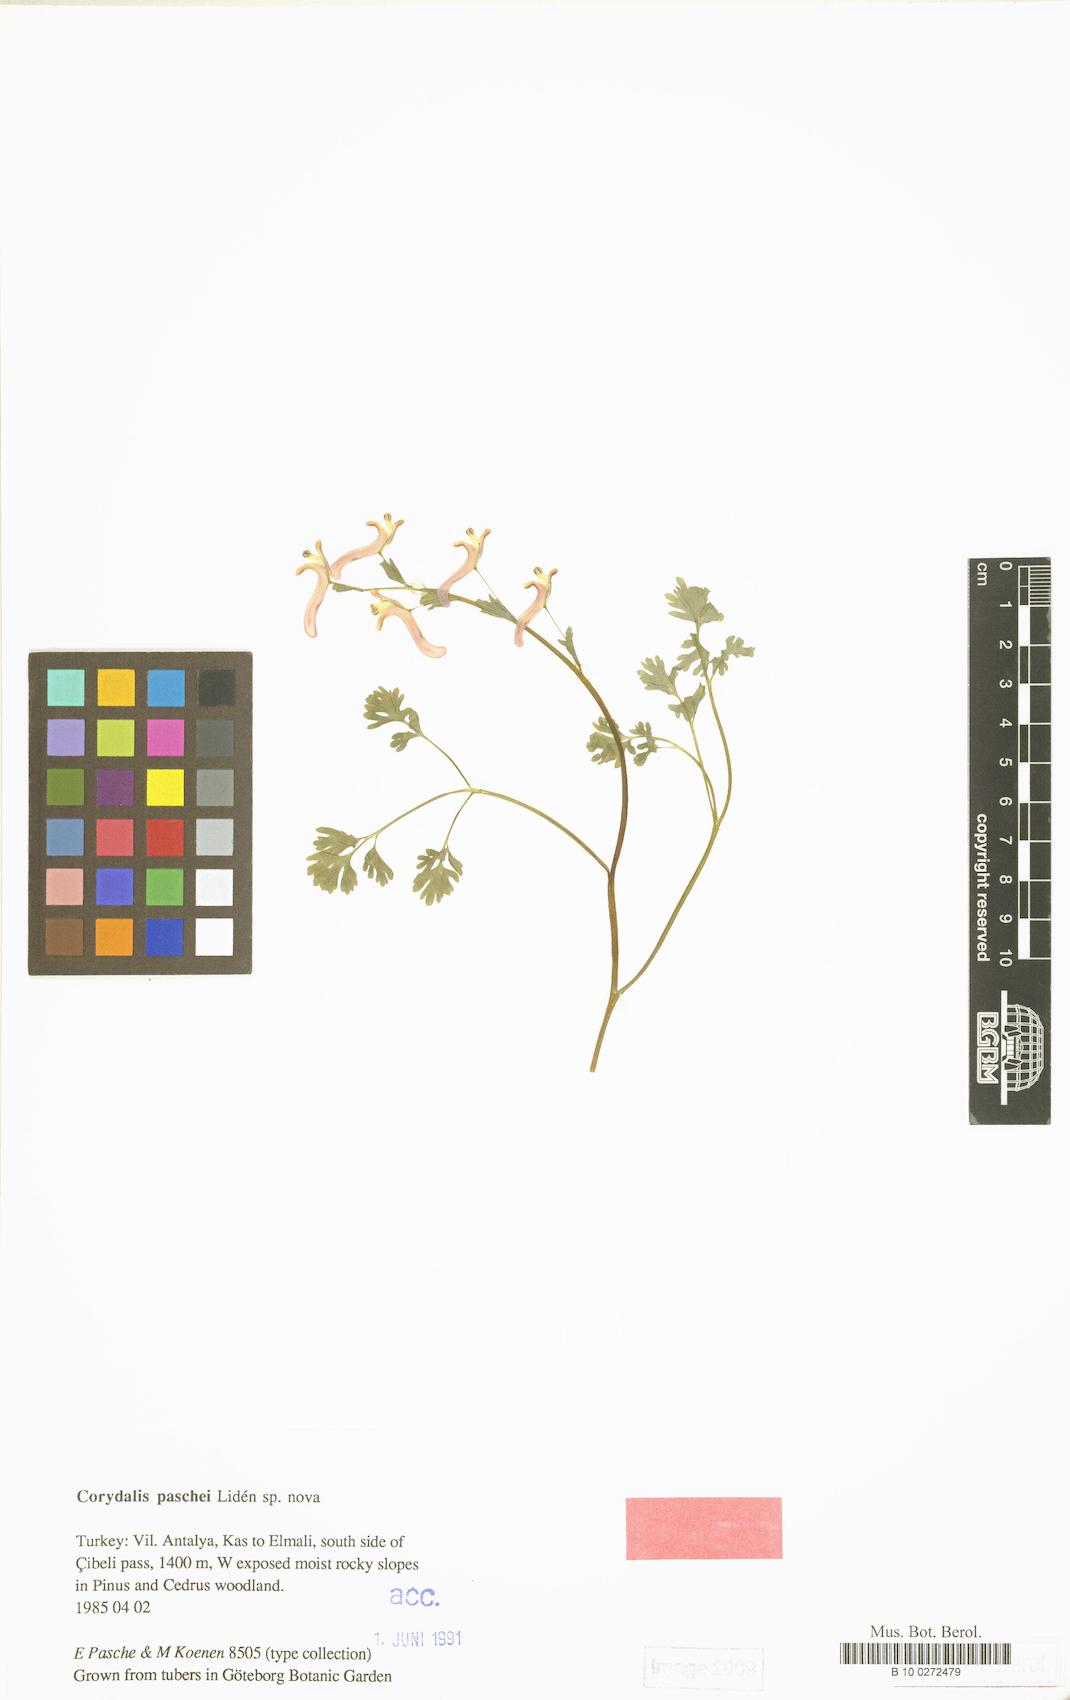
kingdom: Plantae
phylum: Tracheophyta
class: Magnoliopsida
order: Ranunculales
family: Papaveraceae
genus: Corydalis
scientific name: Corydalis paschei
